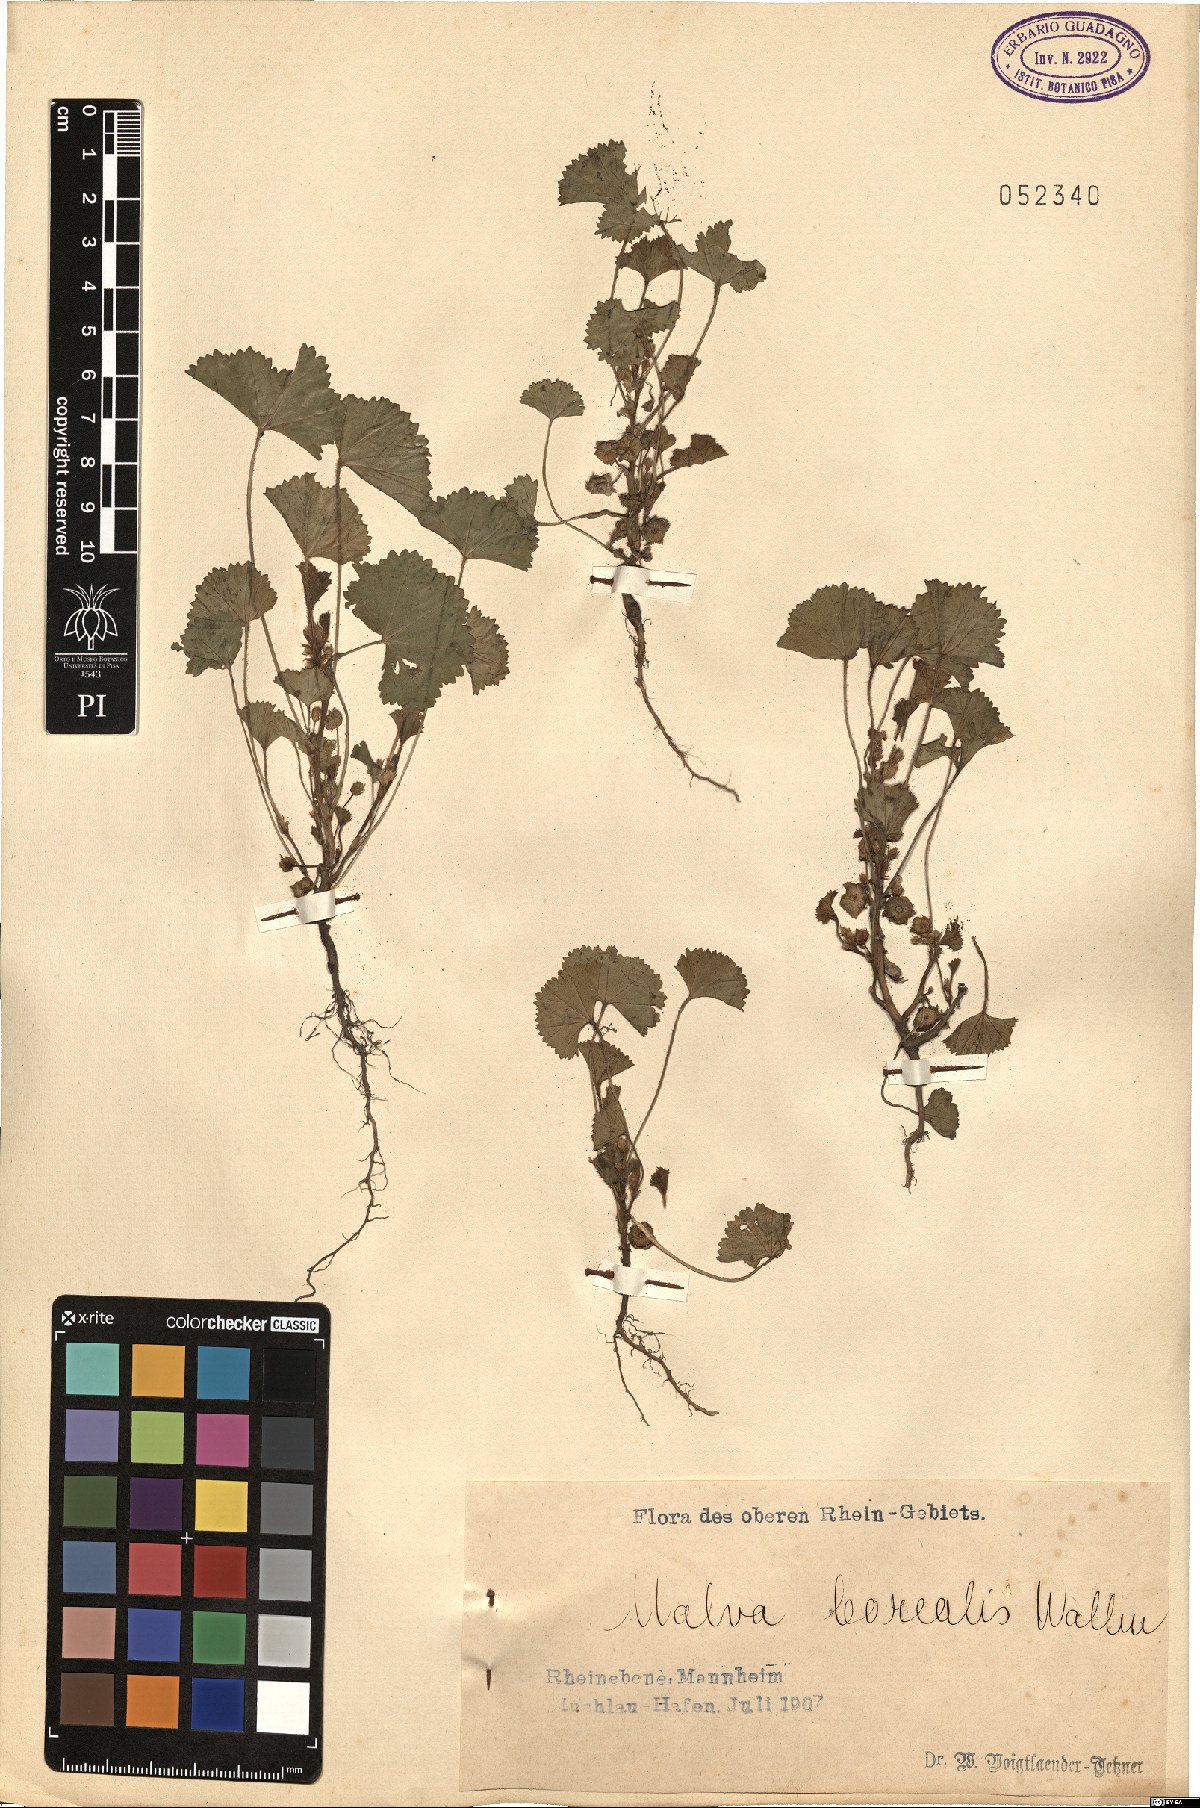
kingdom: Plantae
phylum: Tracheophyta
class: Magnoliopsida
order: Malvales
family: Malvaceae
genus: Malva
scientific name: Malva pusilla
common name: Small mallow
